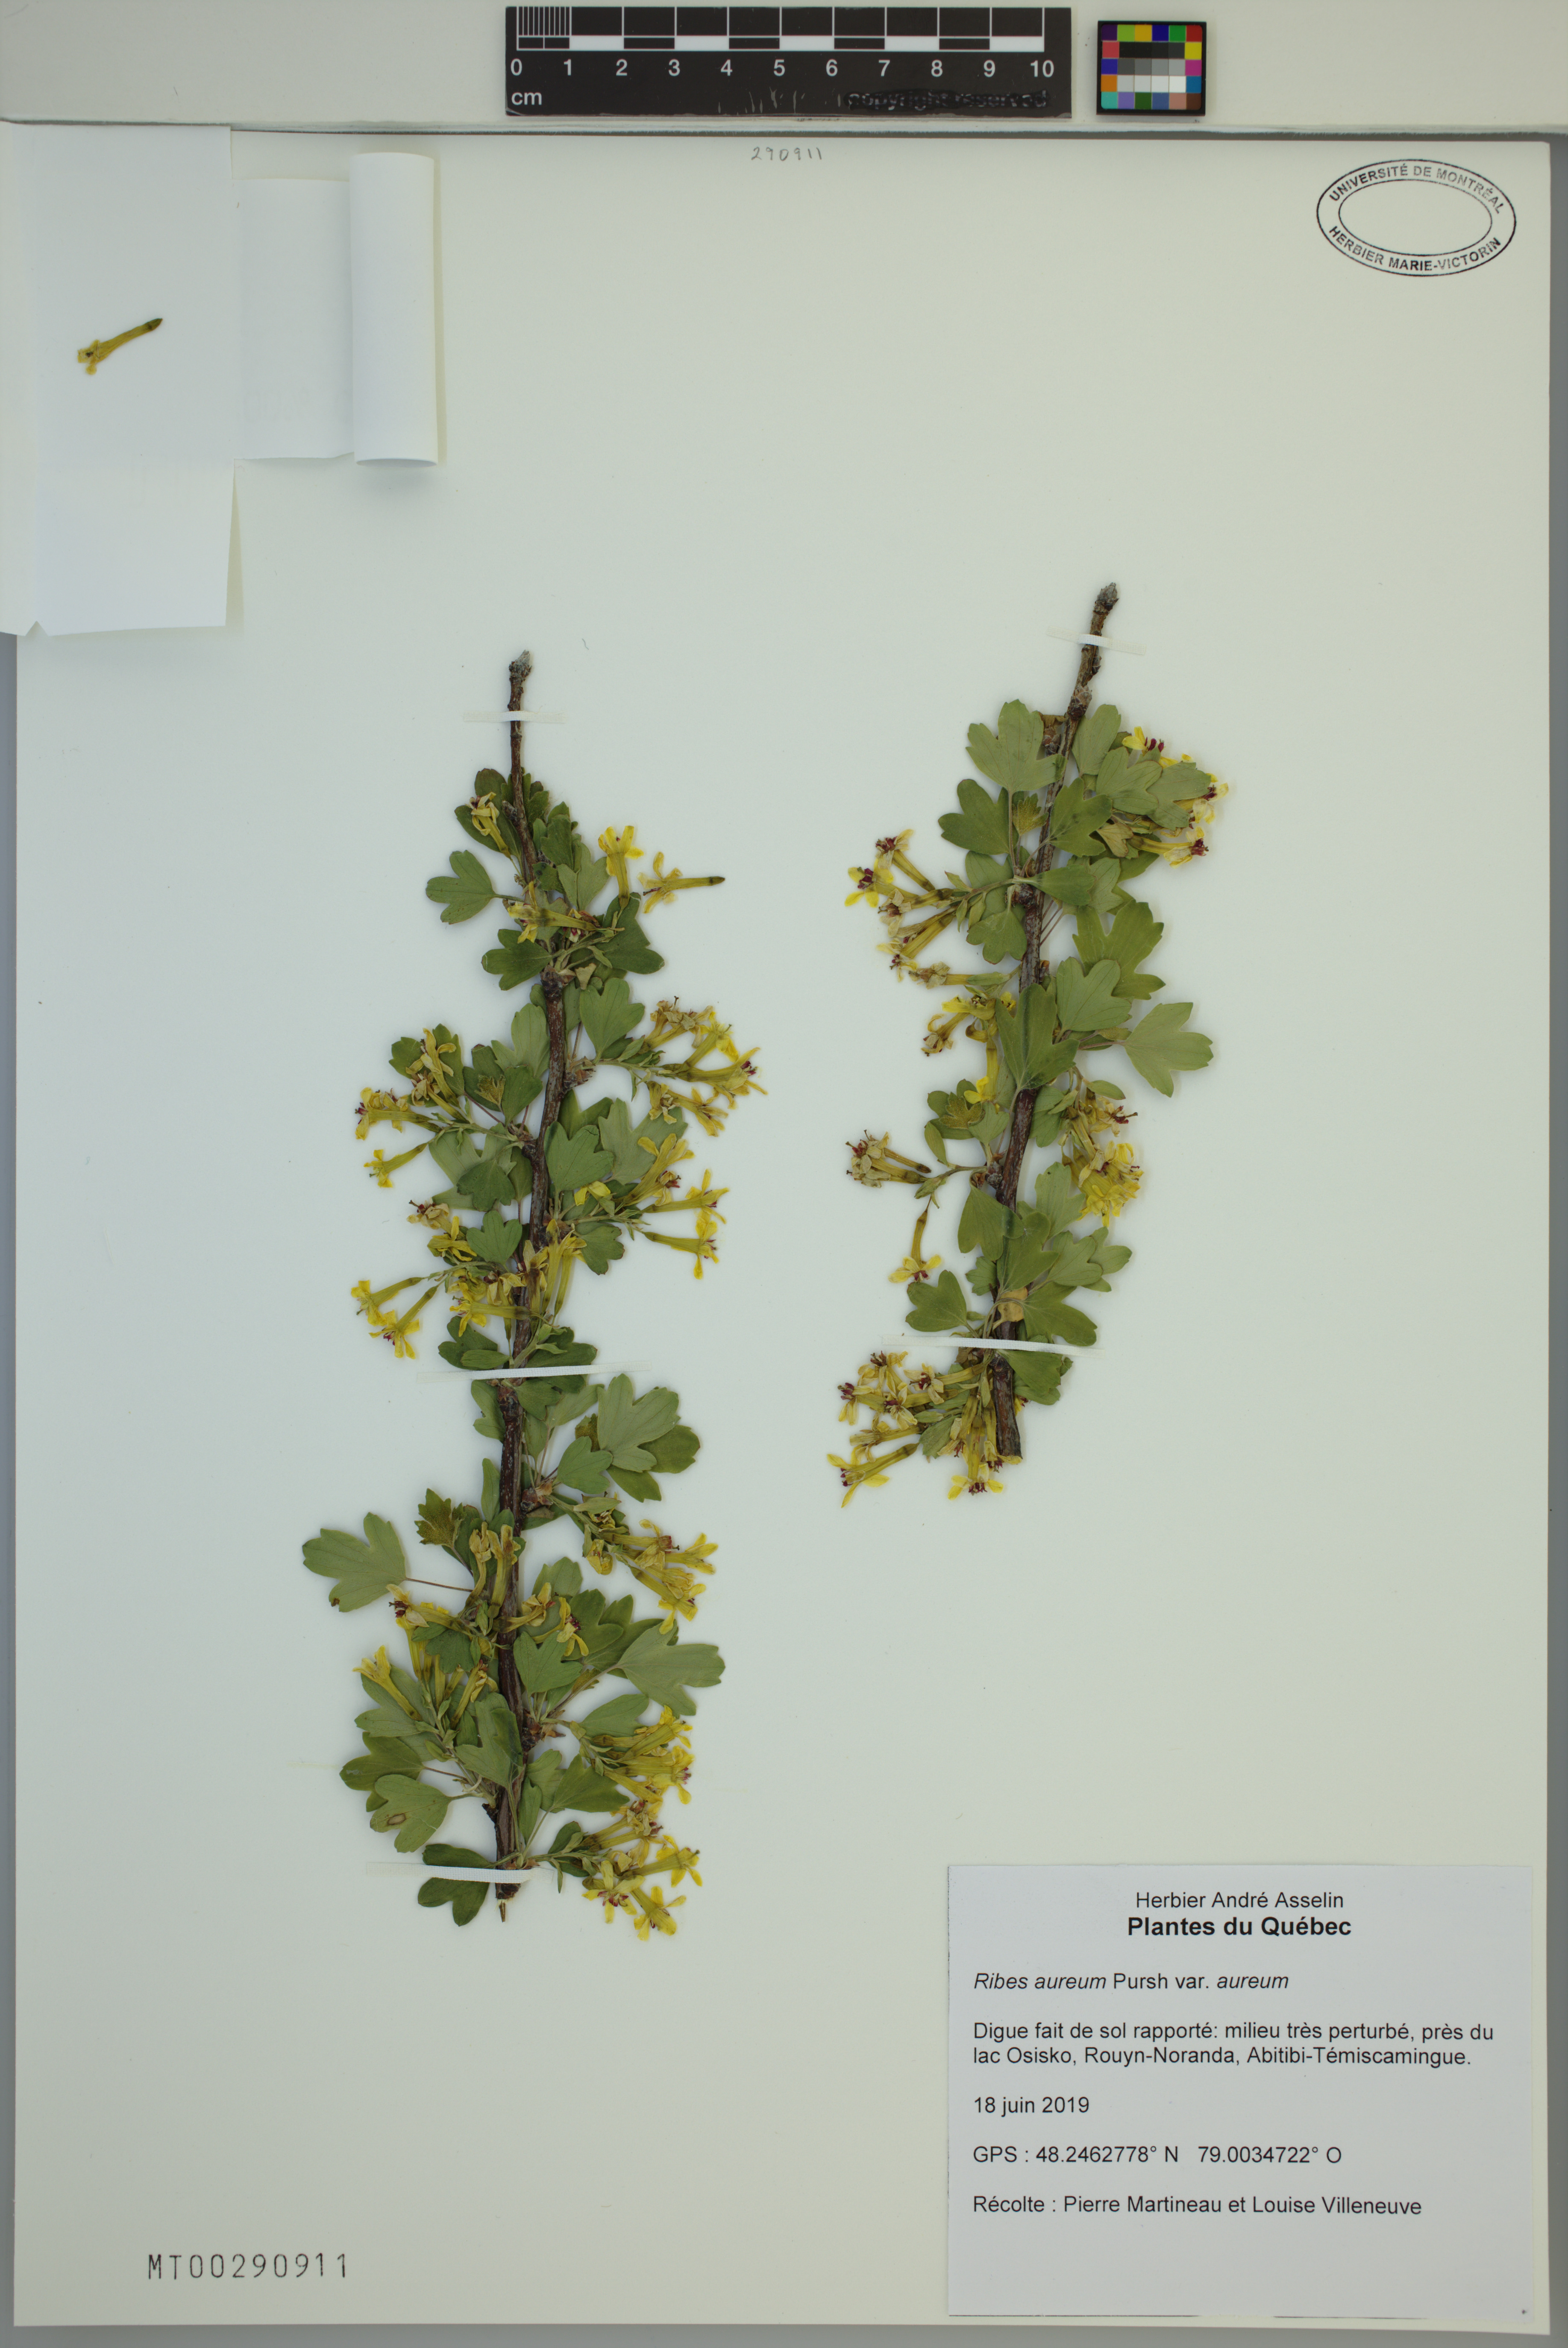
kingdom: Plantae
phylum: Tracheophyta
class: Magnoliopsida
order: Saxifragales
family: Grossulariaceae
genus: Ribes
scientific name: Ribes aureum
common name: Golden currant
